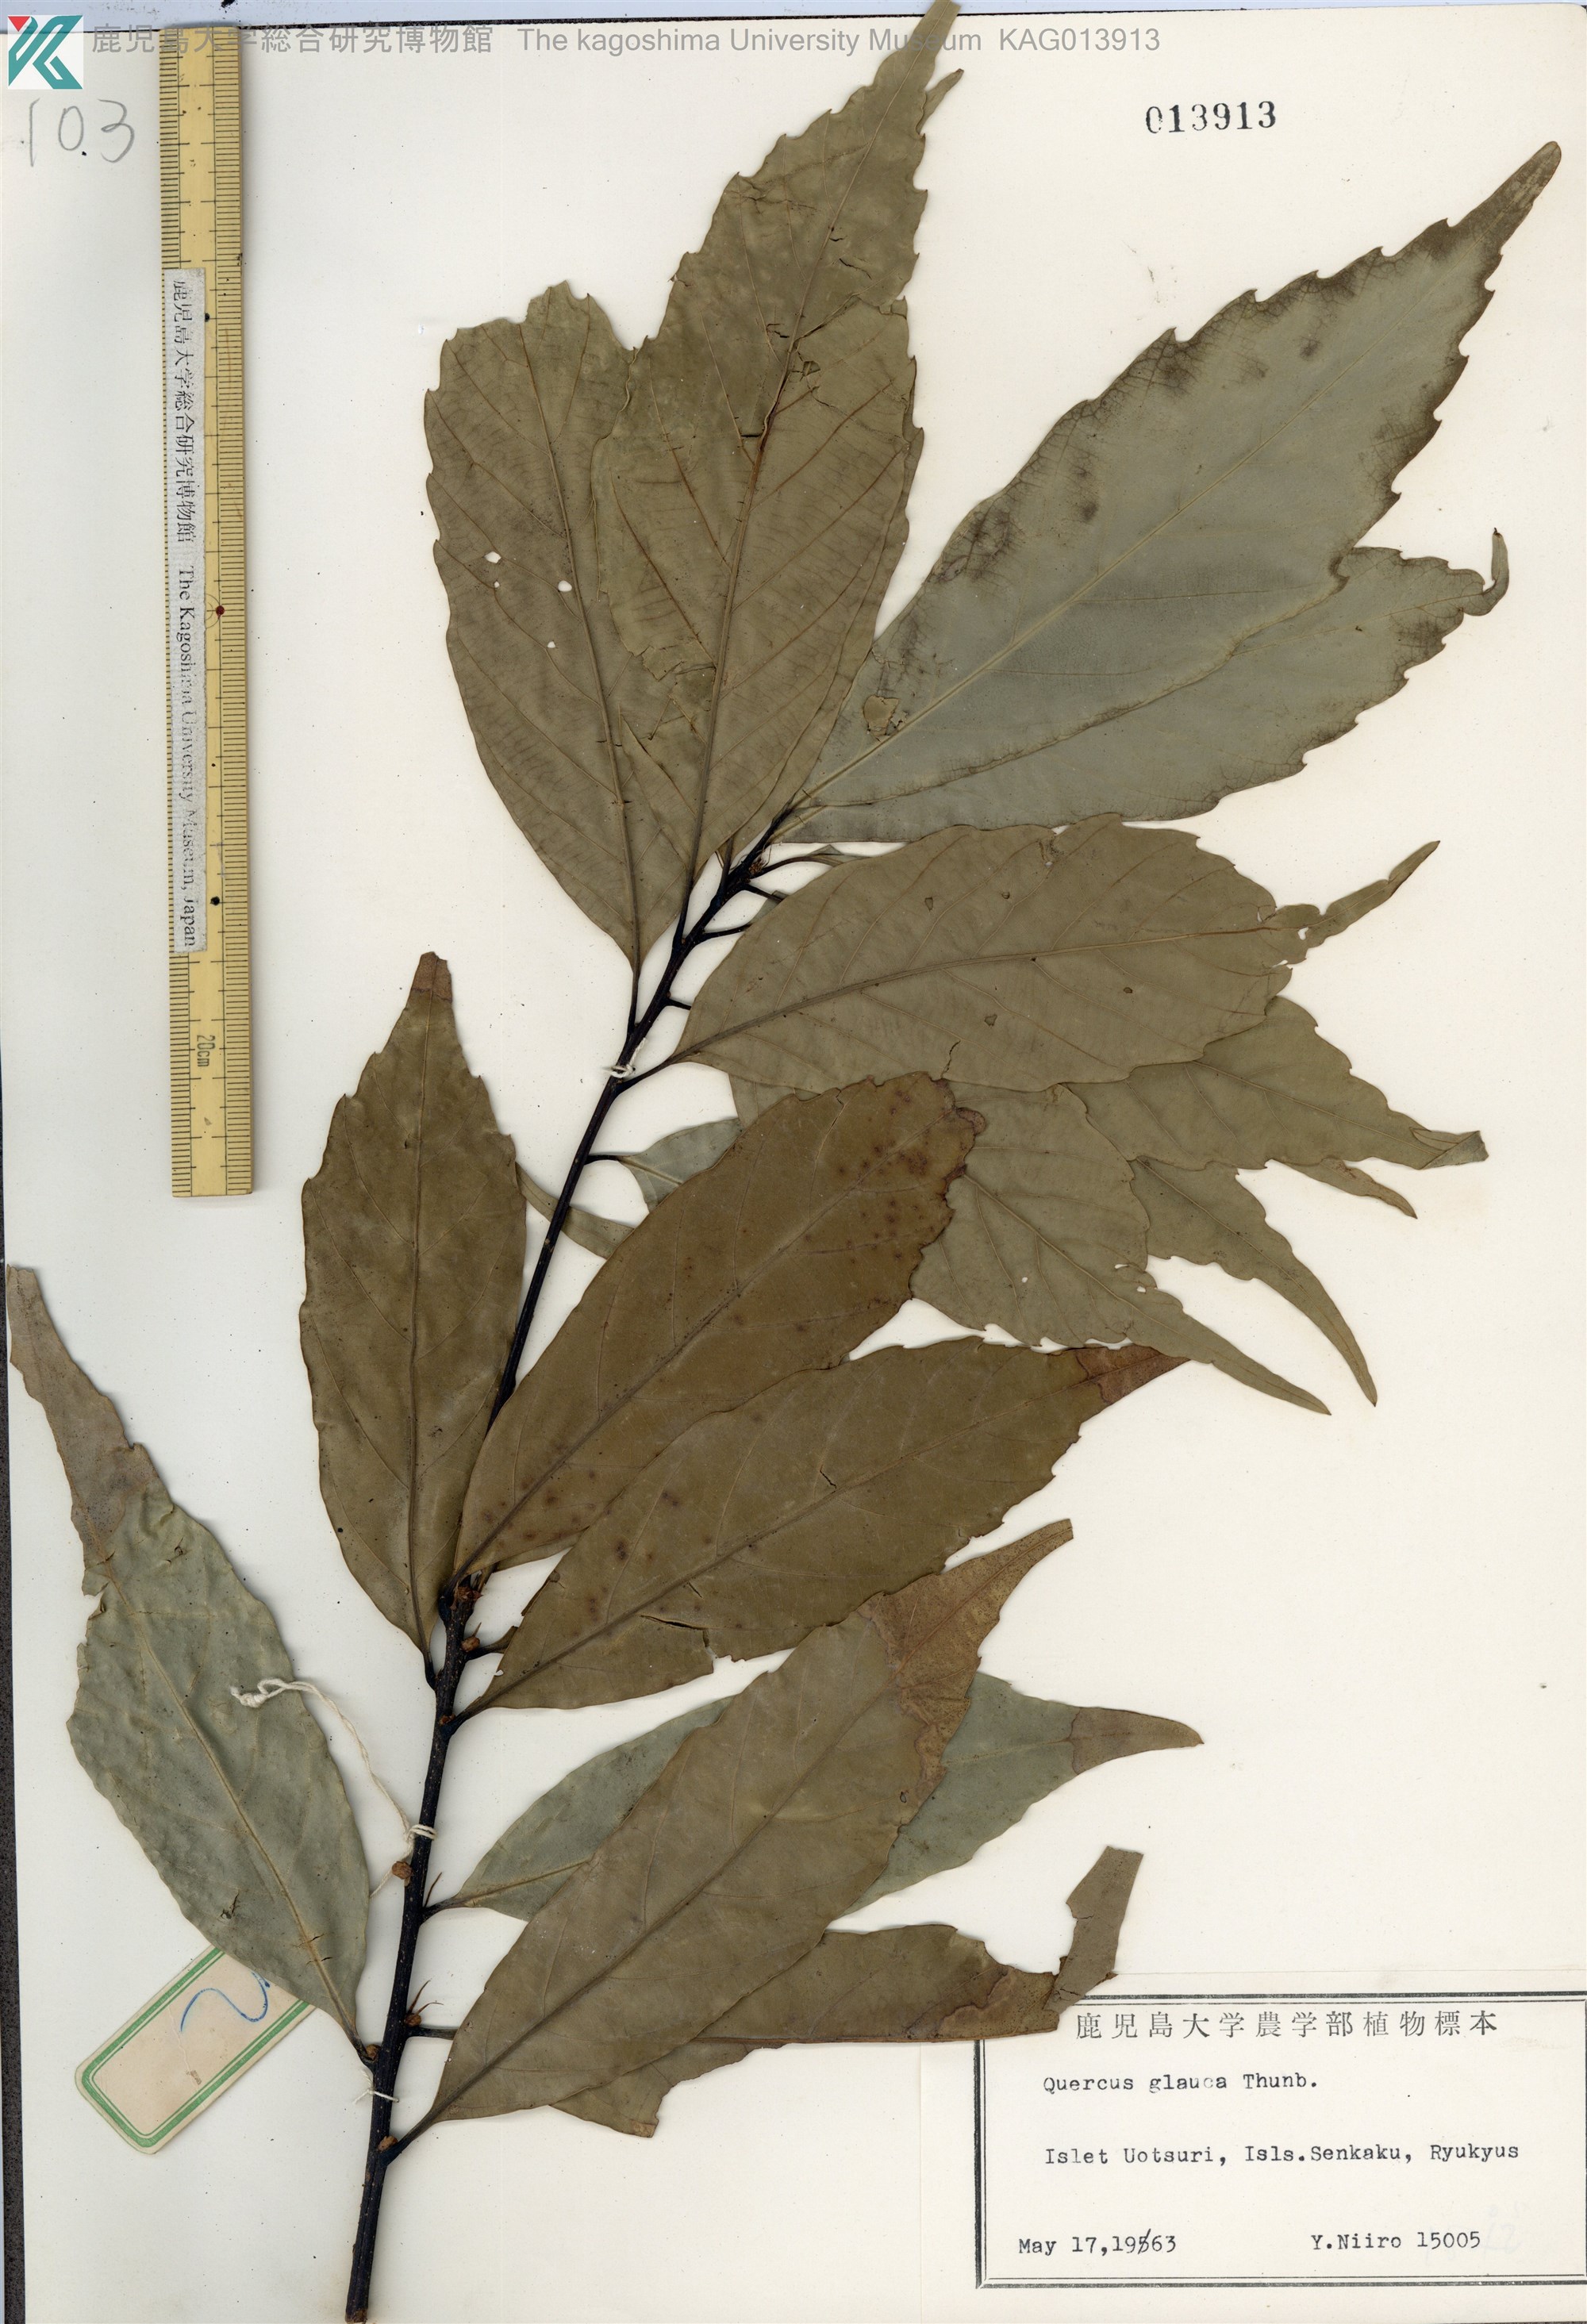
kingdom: Plantae
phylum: Tracheophyta
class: Magnoliopsida
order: Fagales
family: Fagaceae
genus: Quercus
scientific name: Quercus glauca
